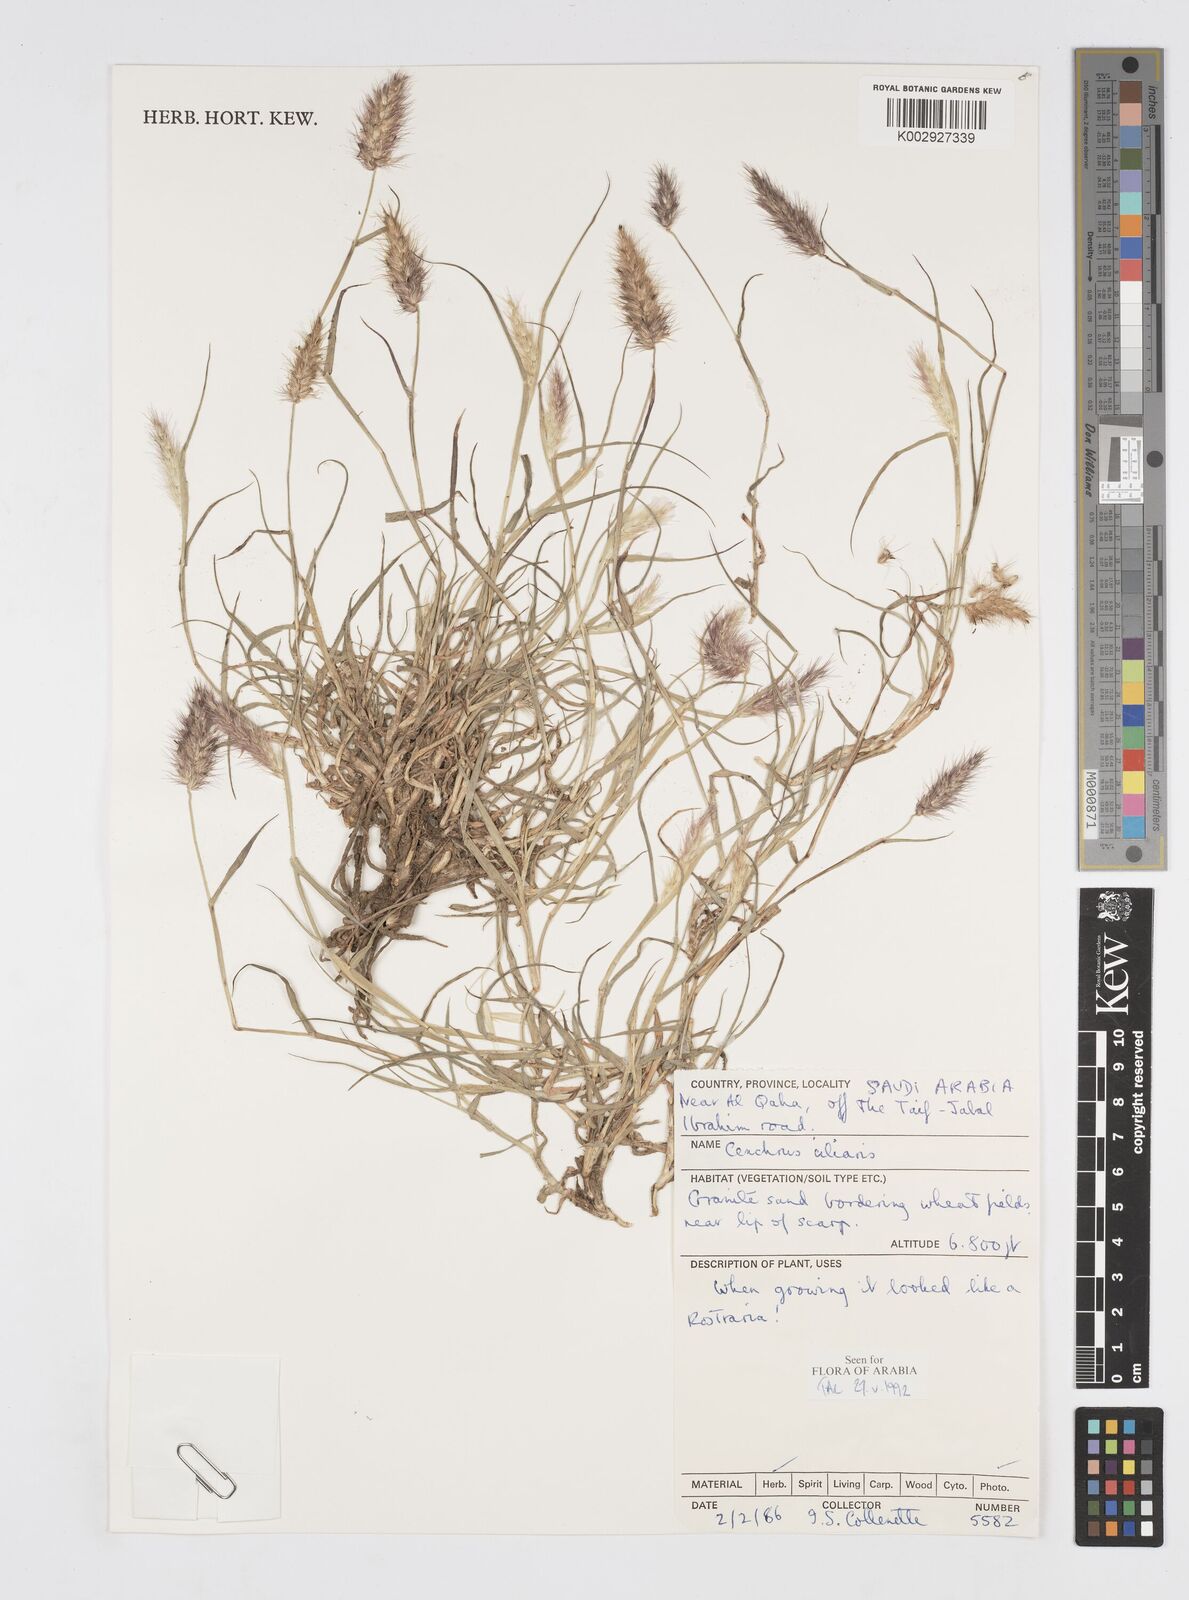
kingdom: Plantae
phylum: Tracheophyta
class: Liliopsida
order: Poales
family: Poaceae
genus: Cenchrus
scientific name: Cenchrus ciliaris
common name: Buffelgrass
